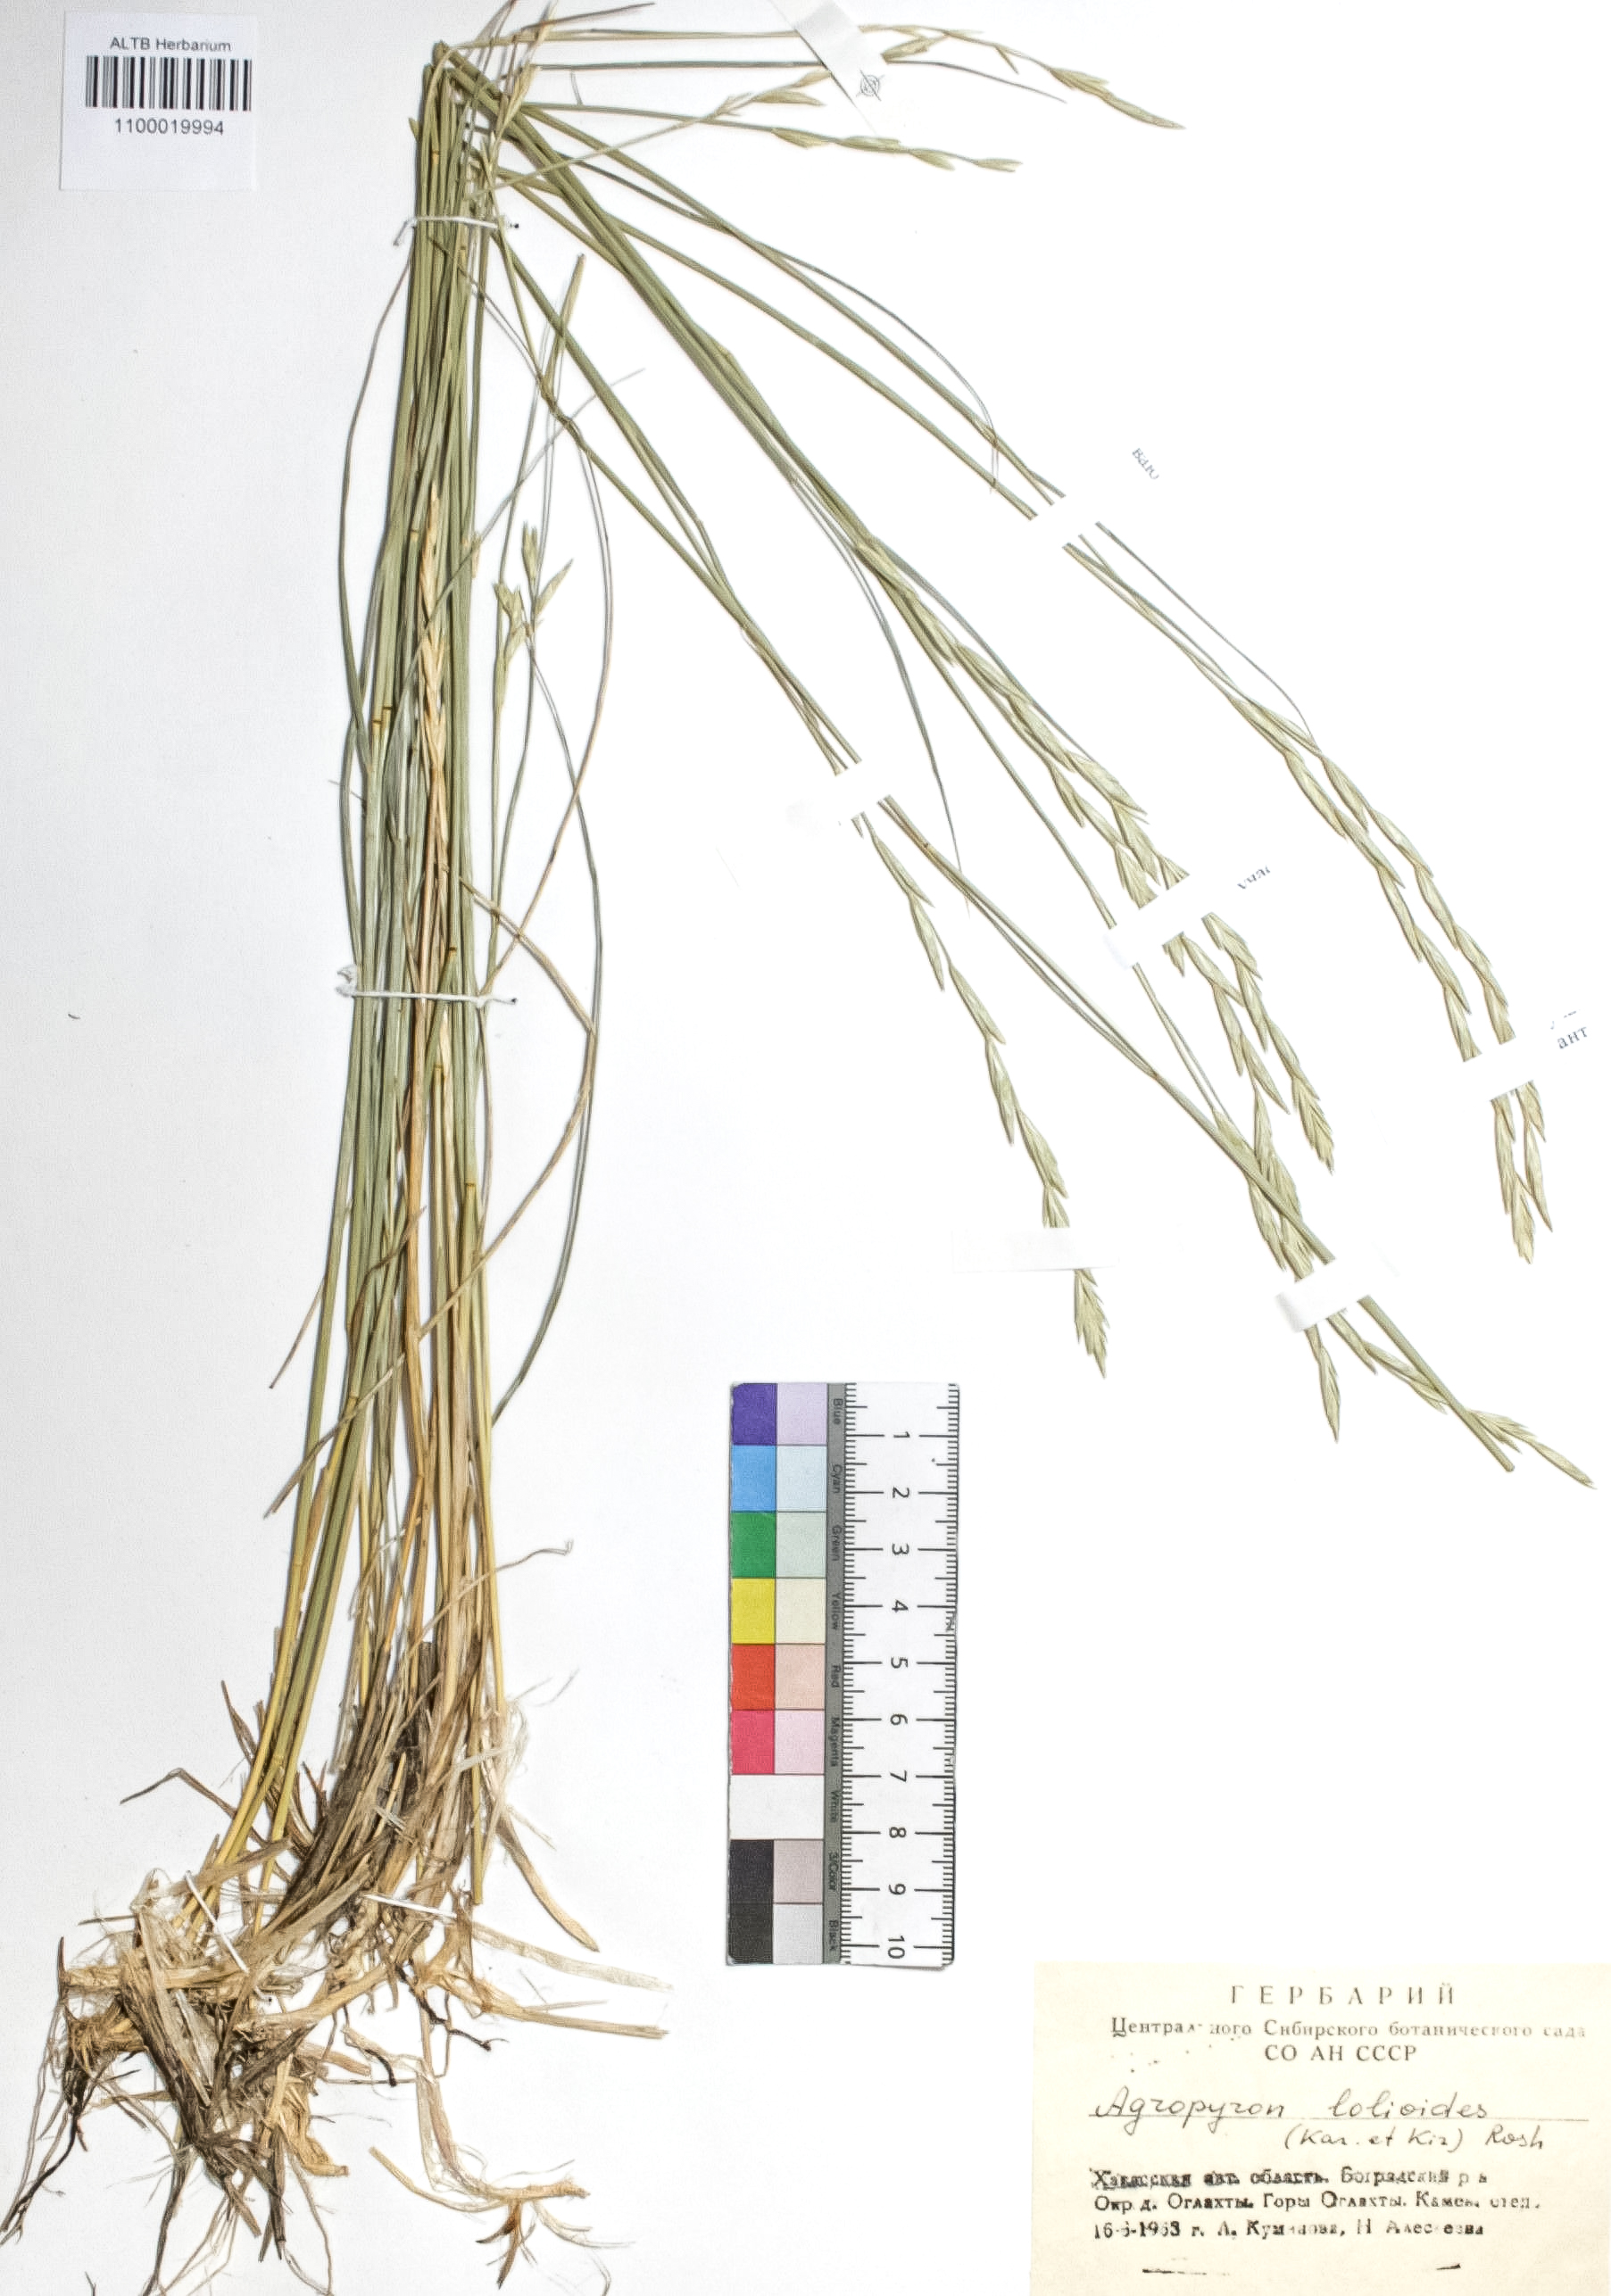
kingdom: Plantae
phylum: Tracheophyta
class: Liliopsida
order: Poales
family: Poaceae
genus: Agropyron
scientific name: Agropyron lolioides
